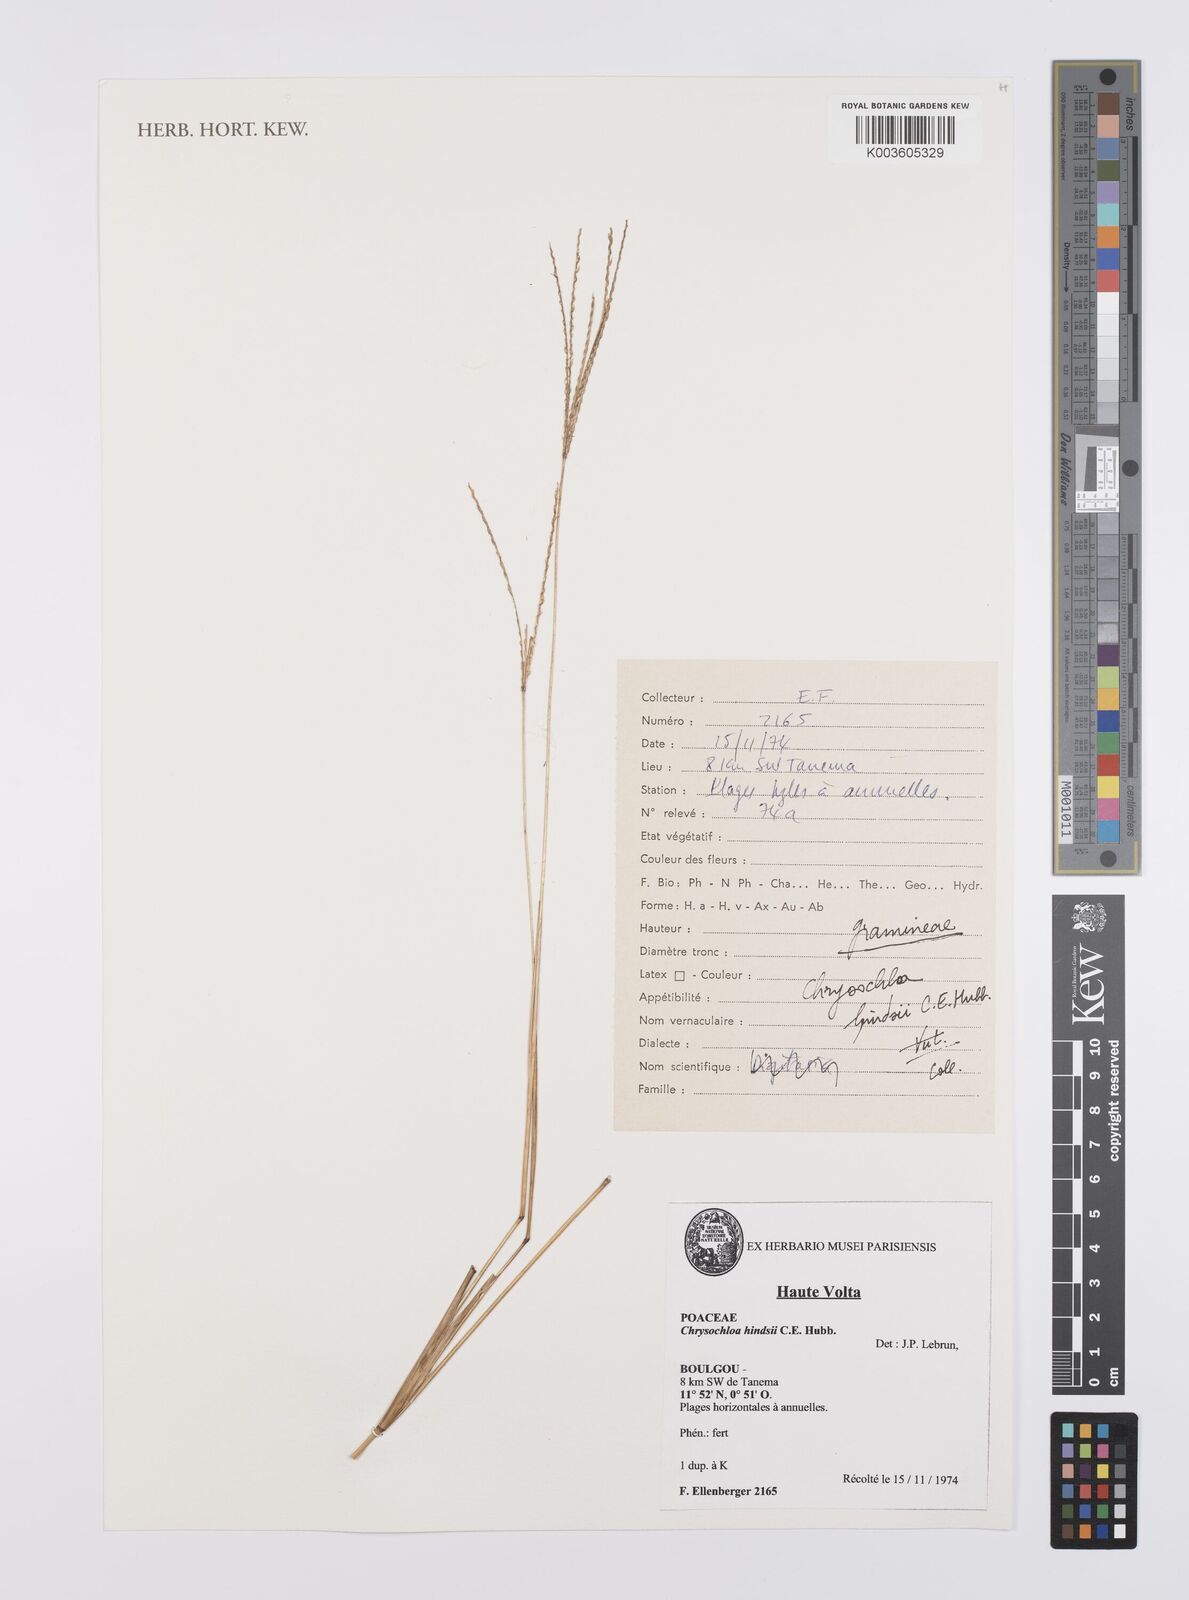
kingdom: Plantae
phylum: Tracheophyta
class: Liliopsida
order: Poales
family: Poaceae
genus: Chrysochloa
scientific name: Chrysochloa hindsii
